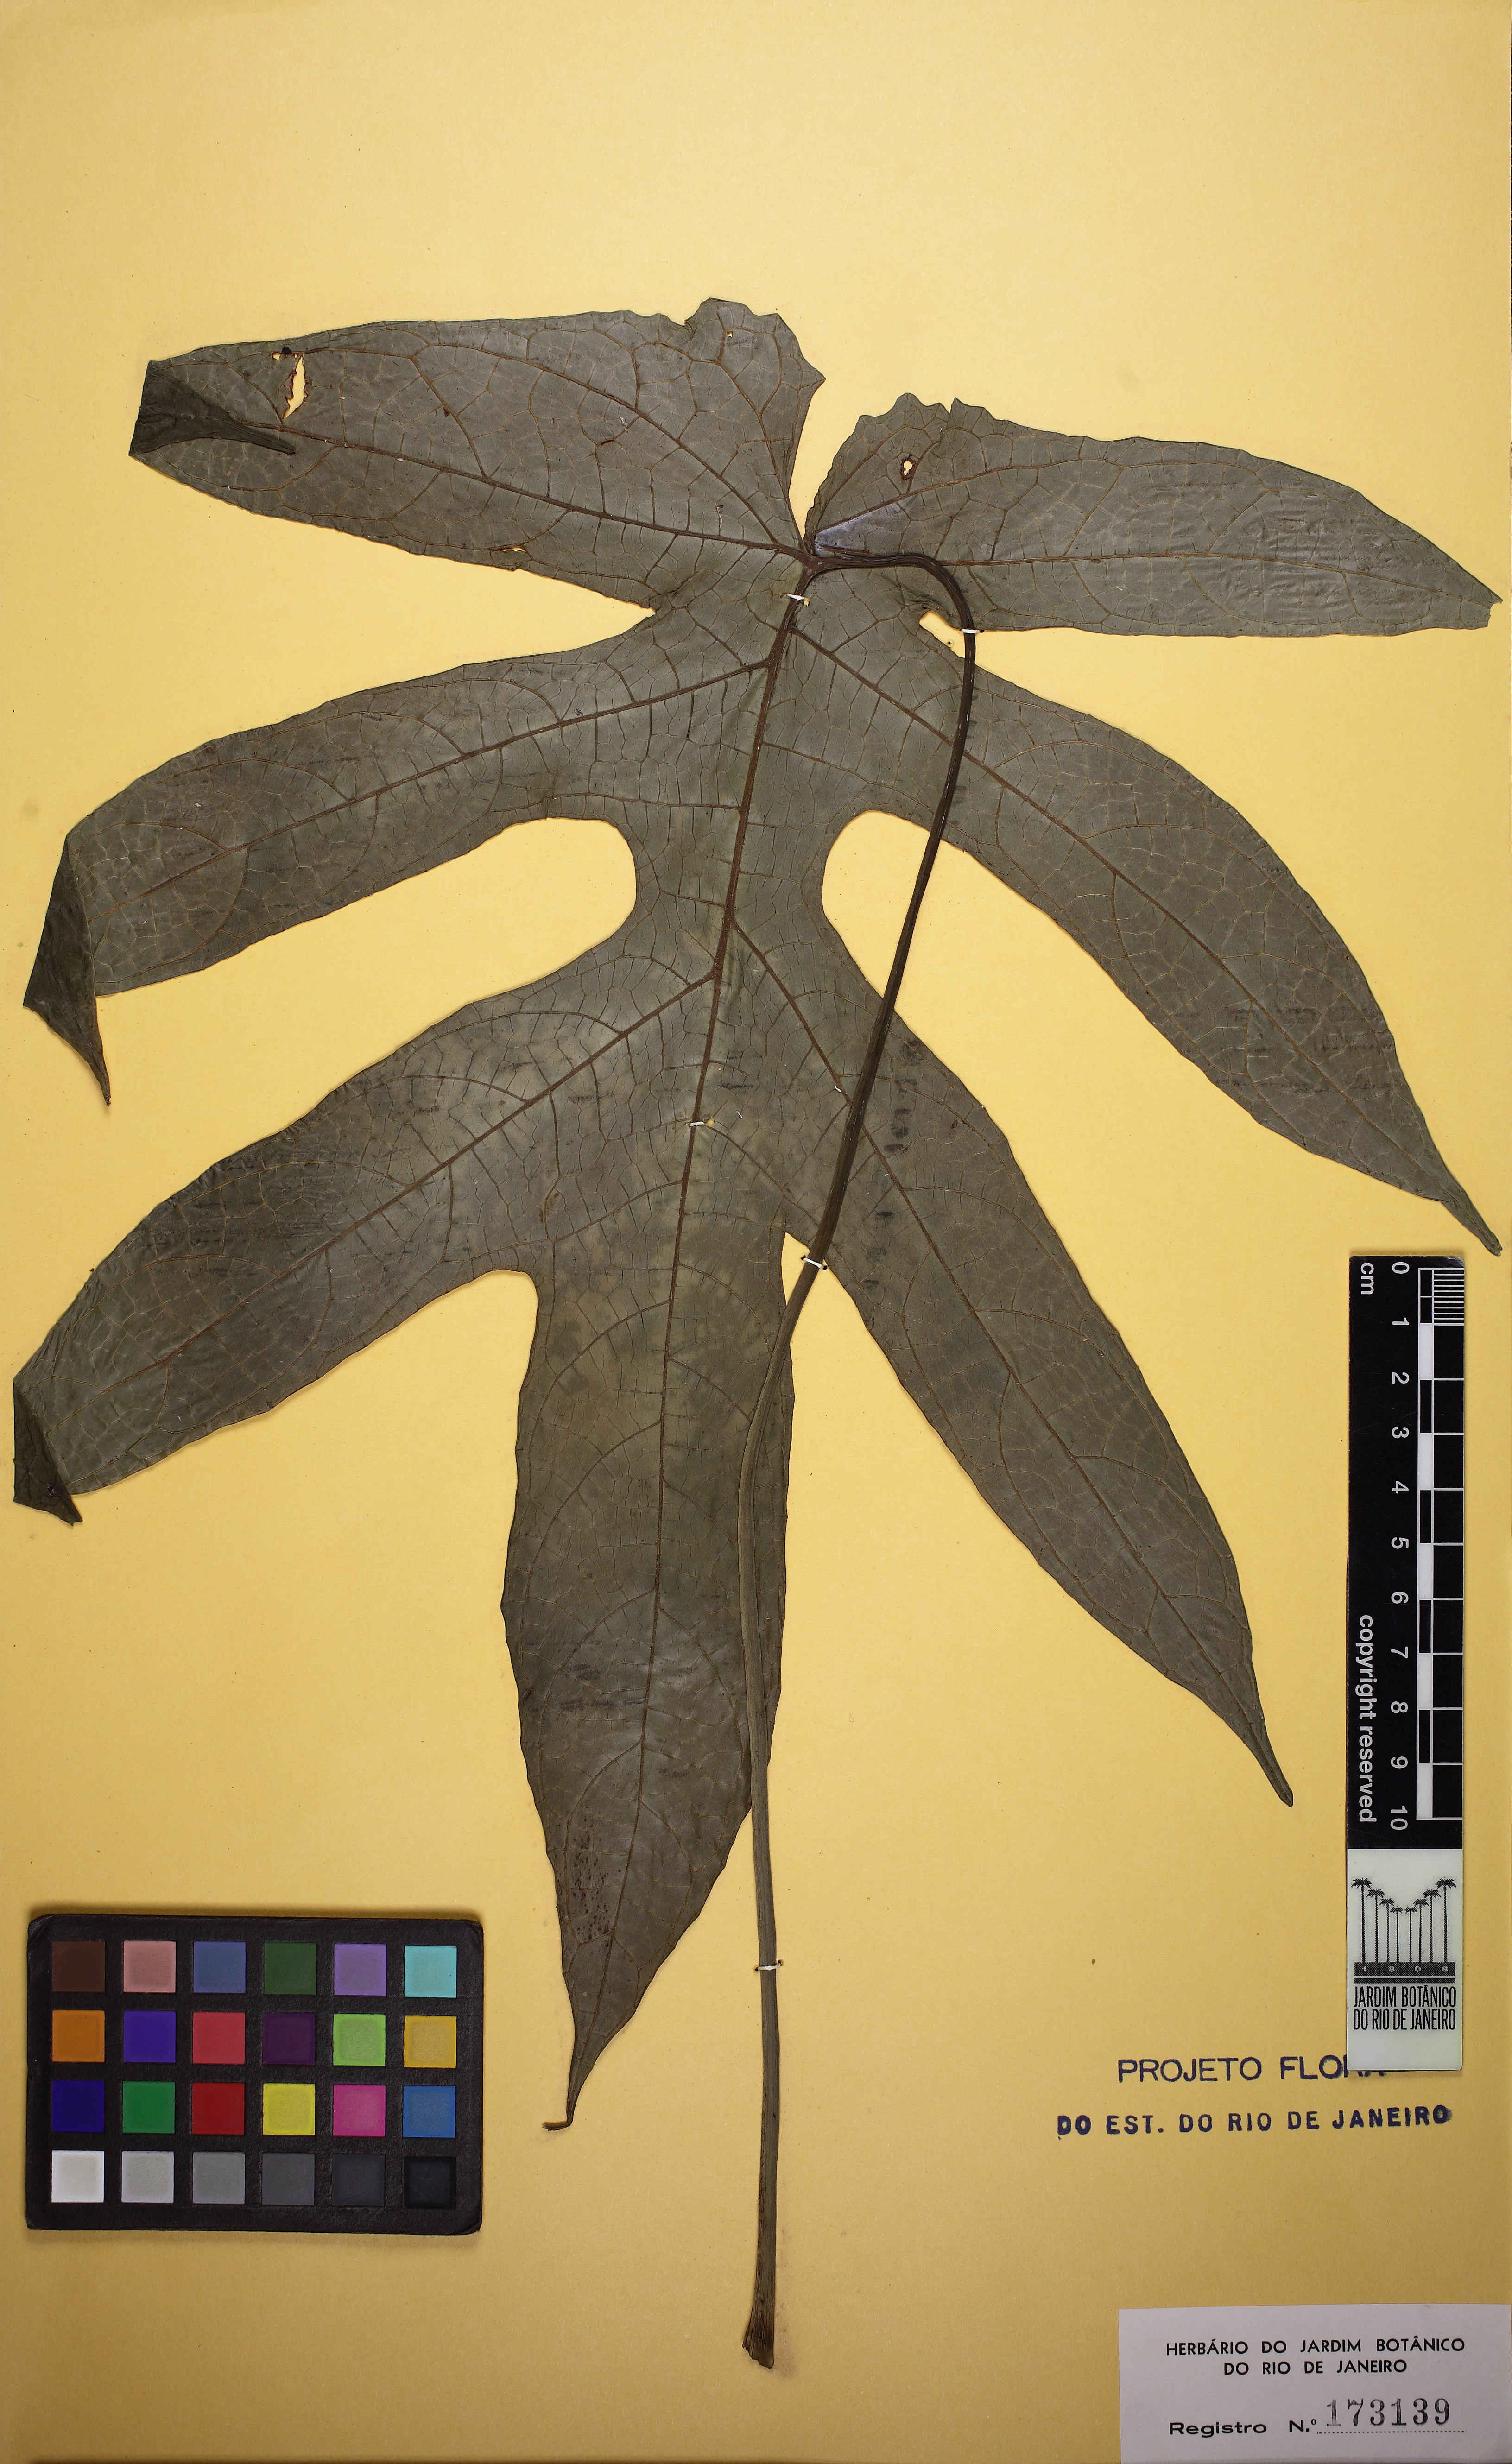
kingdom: Plantae
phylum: Tracheophyta
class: Magnoliopsida
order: Rosales
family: Moraceae
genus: Dorstenia
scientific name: Dorstenia ramosa
